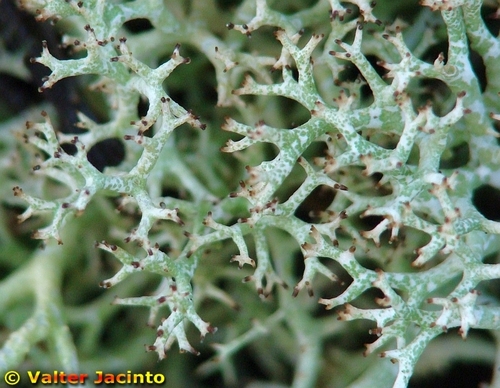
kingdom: Fungi
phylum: Ascomycota
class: Lecanoromycetes
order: Lecanorales
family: Cladoniaceae
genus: Cladonia
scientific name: Cladonia rangiformis
